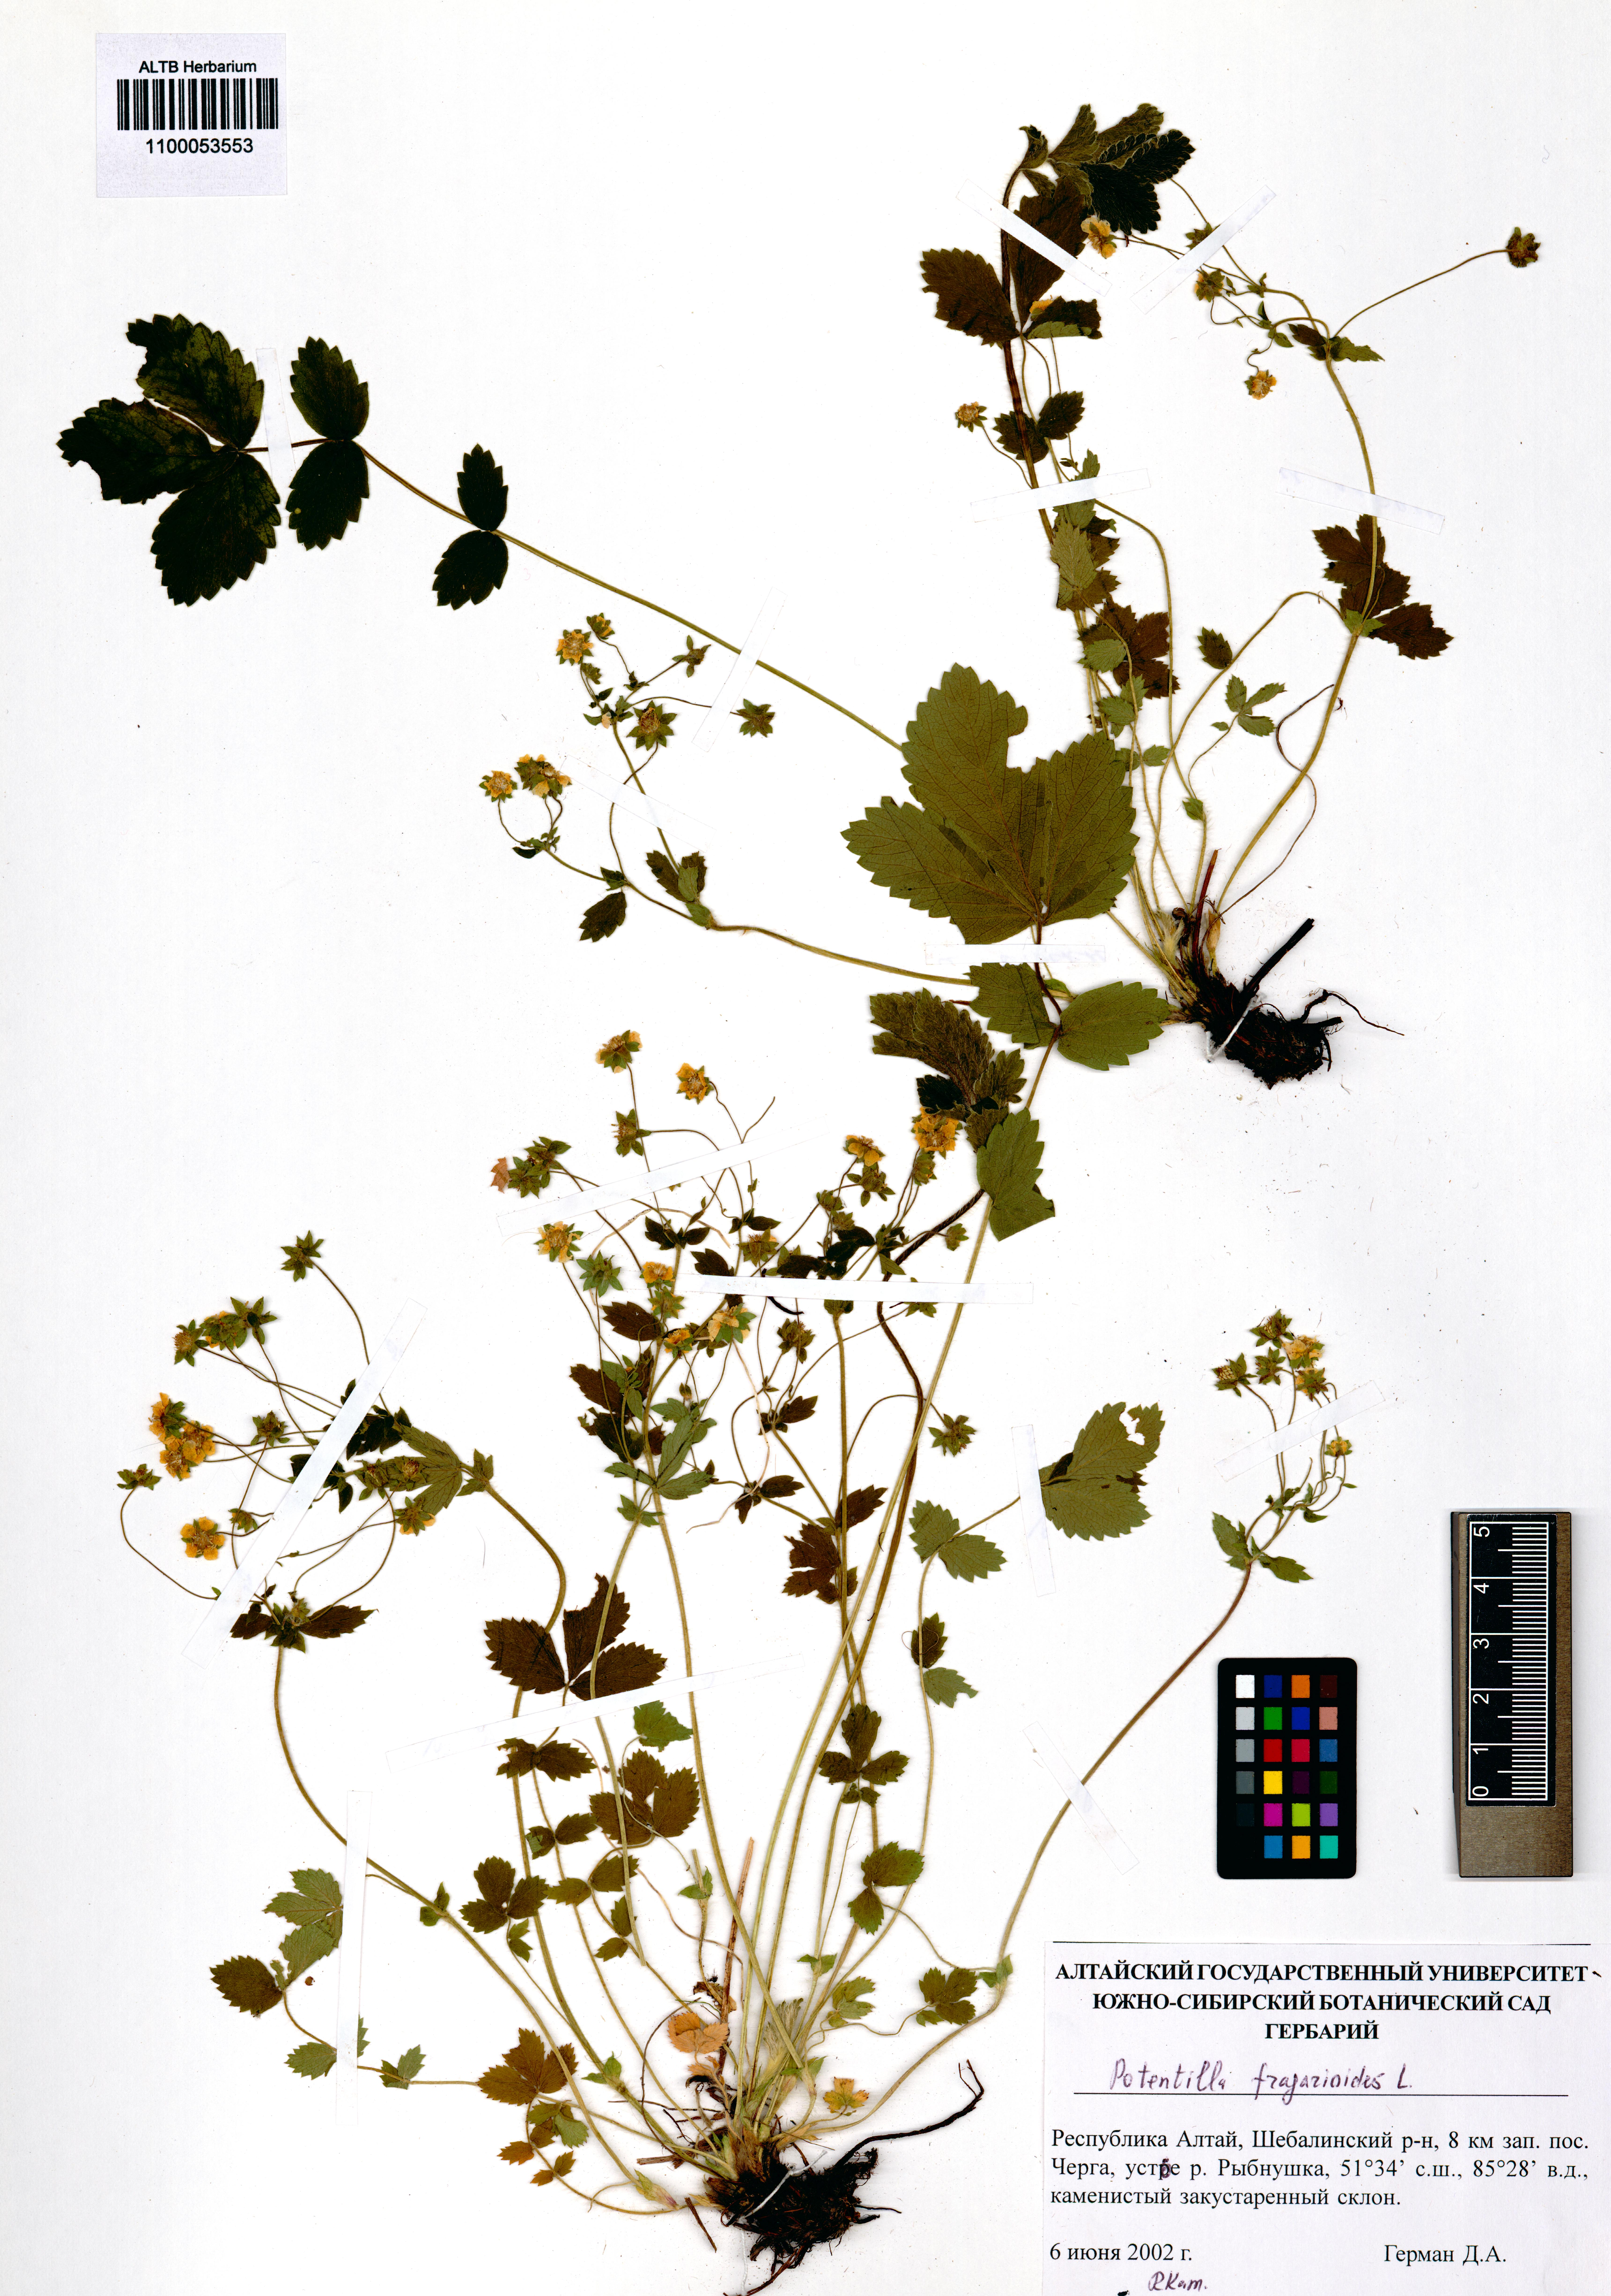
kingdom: Plantae
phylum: Tracheophyta
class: Magnoliopsida
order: Rosales
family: Rosaceae
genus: Potentilla
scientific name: Potentilla fragarioides
